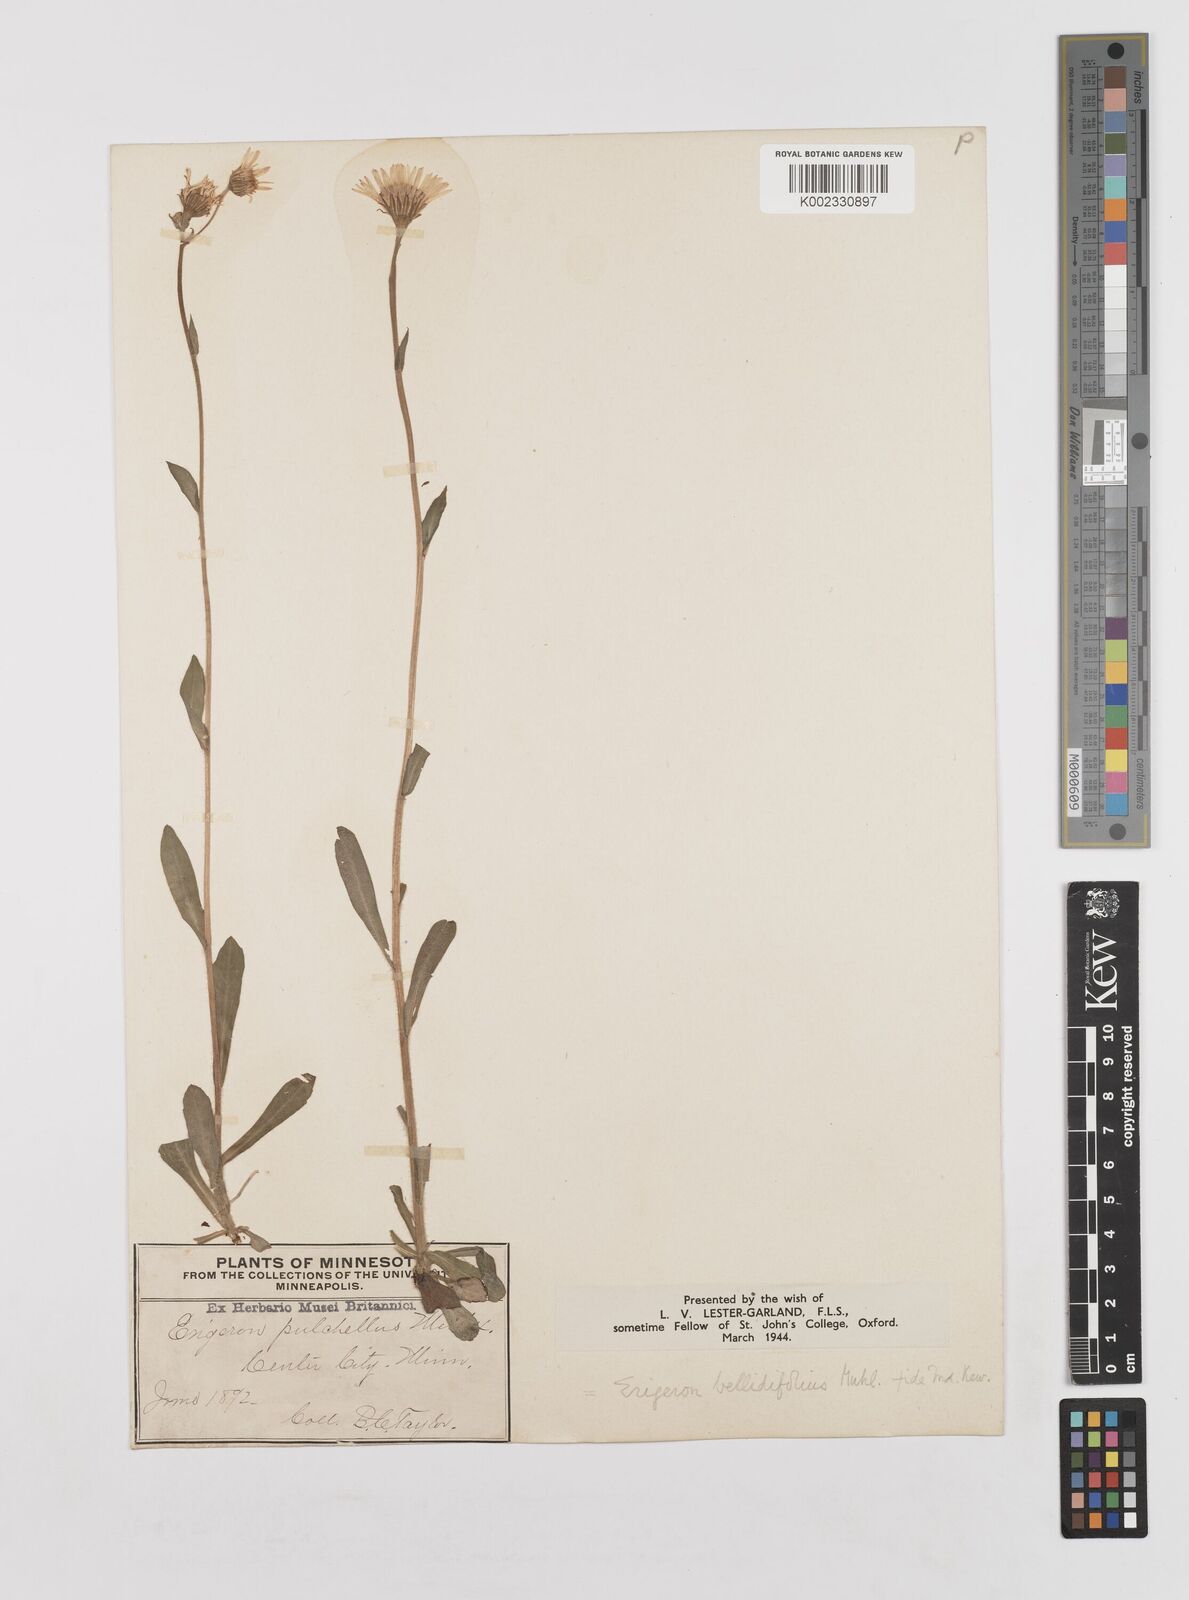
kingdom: Plantae
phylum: Tracheophyta
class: Magnoliopsida
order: Asterales
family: Asteraceae
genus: Erigeron
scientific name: Erigeron pulchellus
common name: Hairy fleabane
